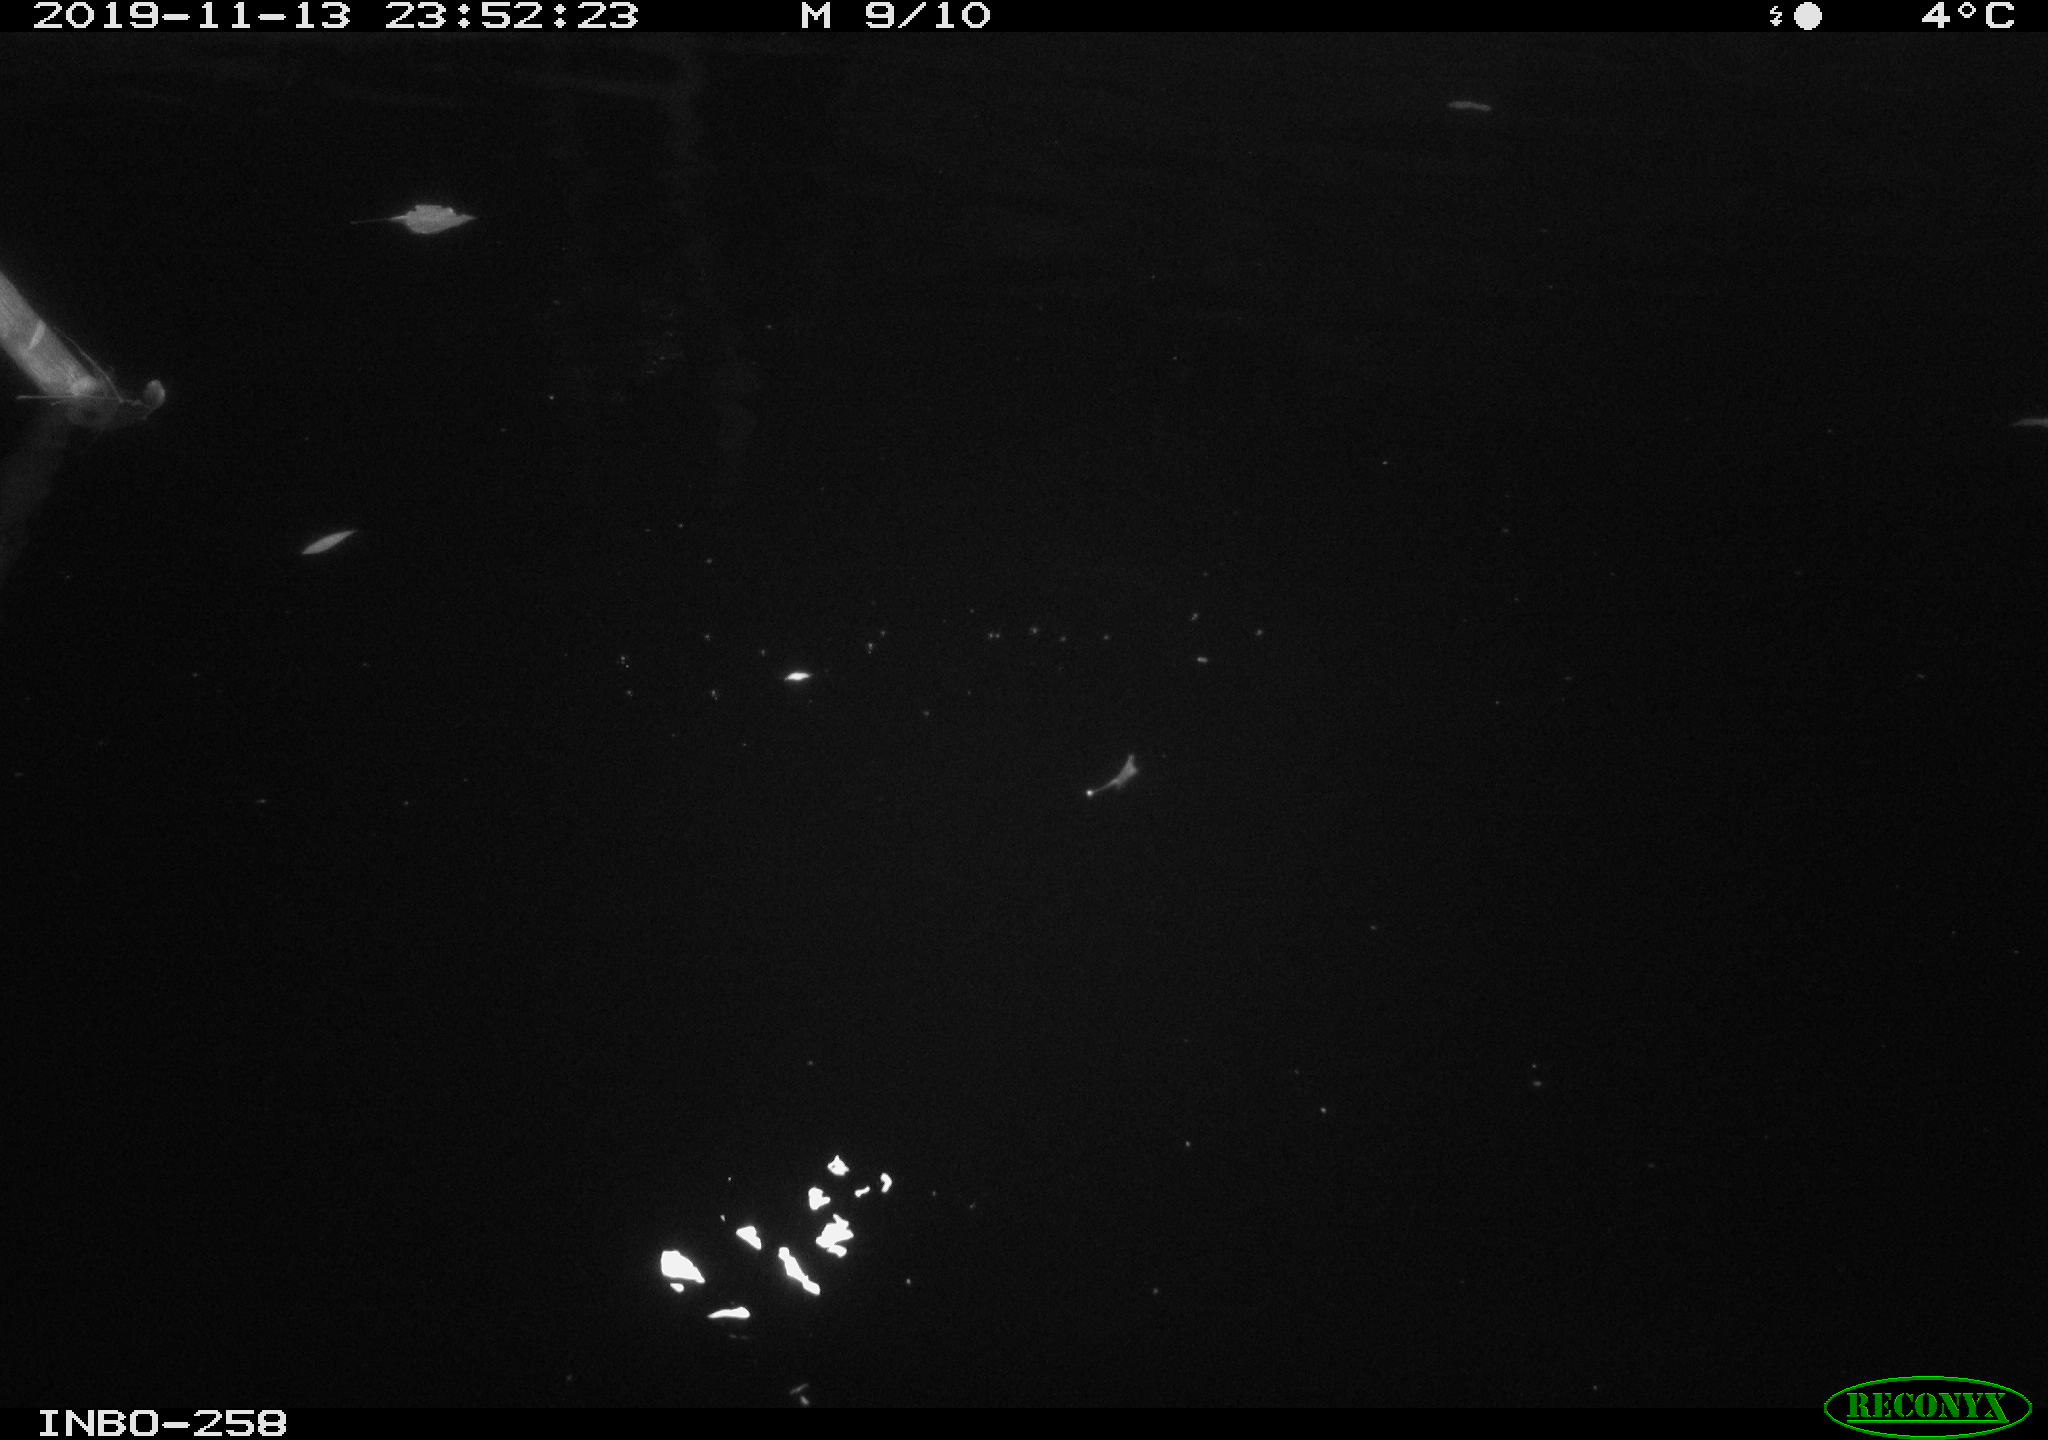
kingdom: Animalia
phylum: Chordata
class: Aves
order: Anseriformes
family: Anatidae
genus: Anas
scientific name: Anas platyrhynchos
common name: Mallard
